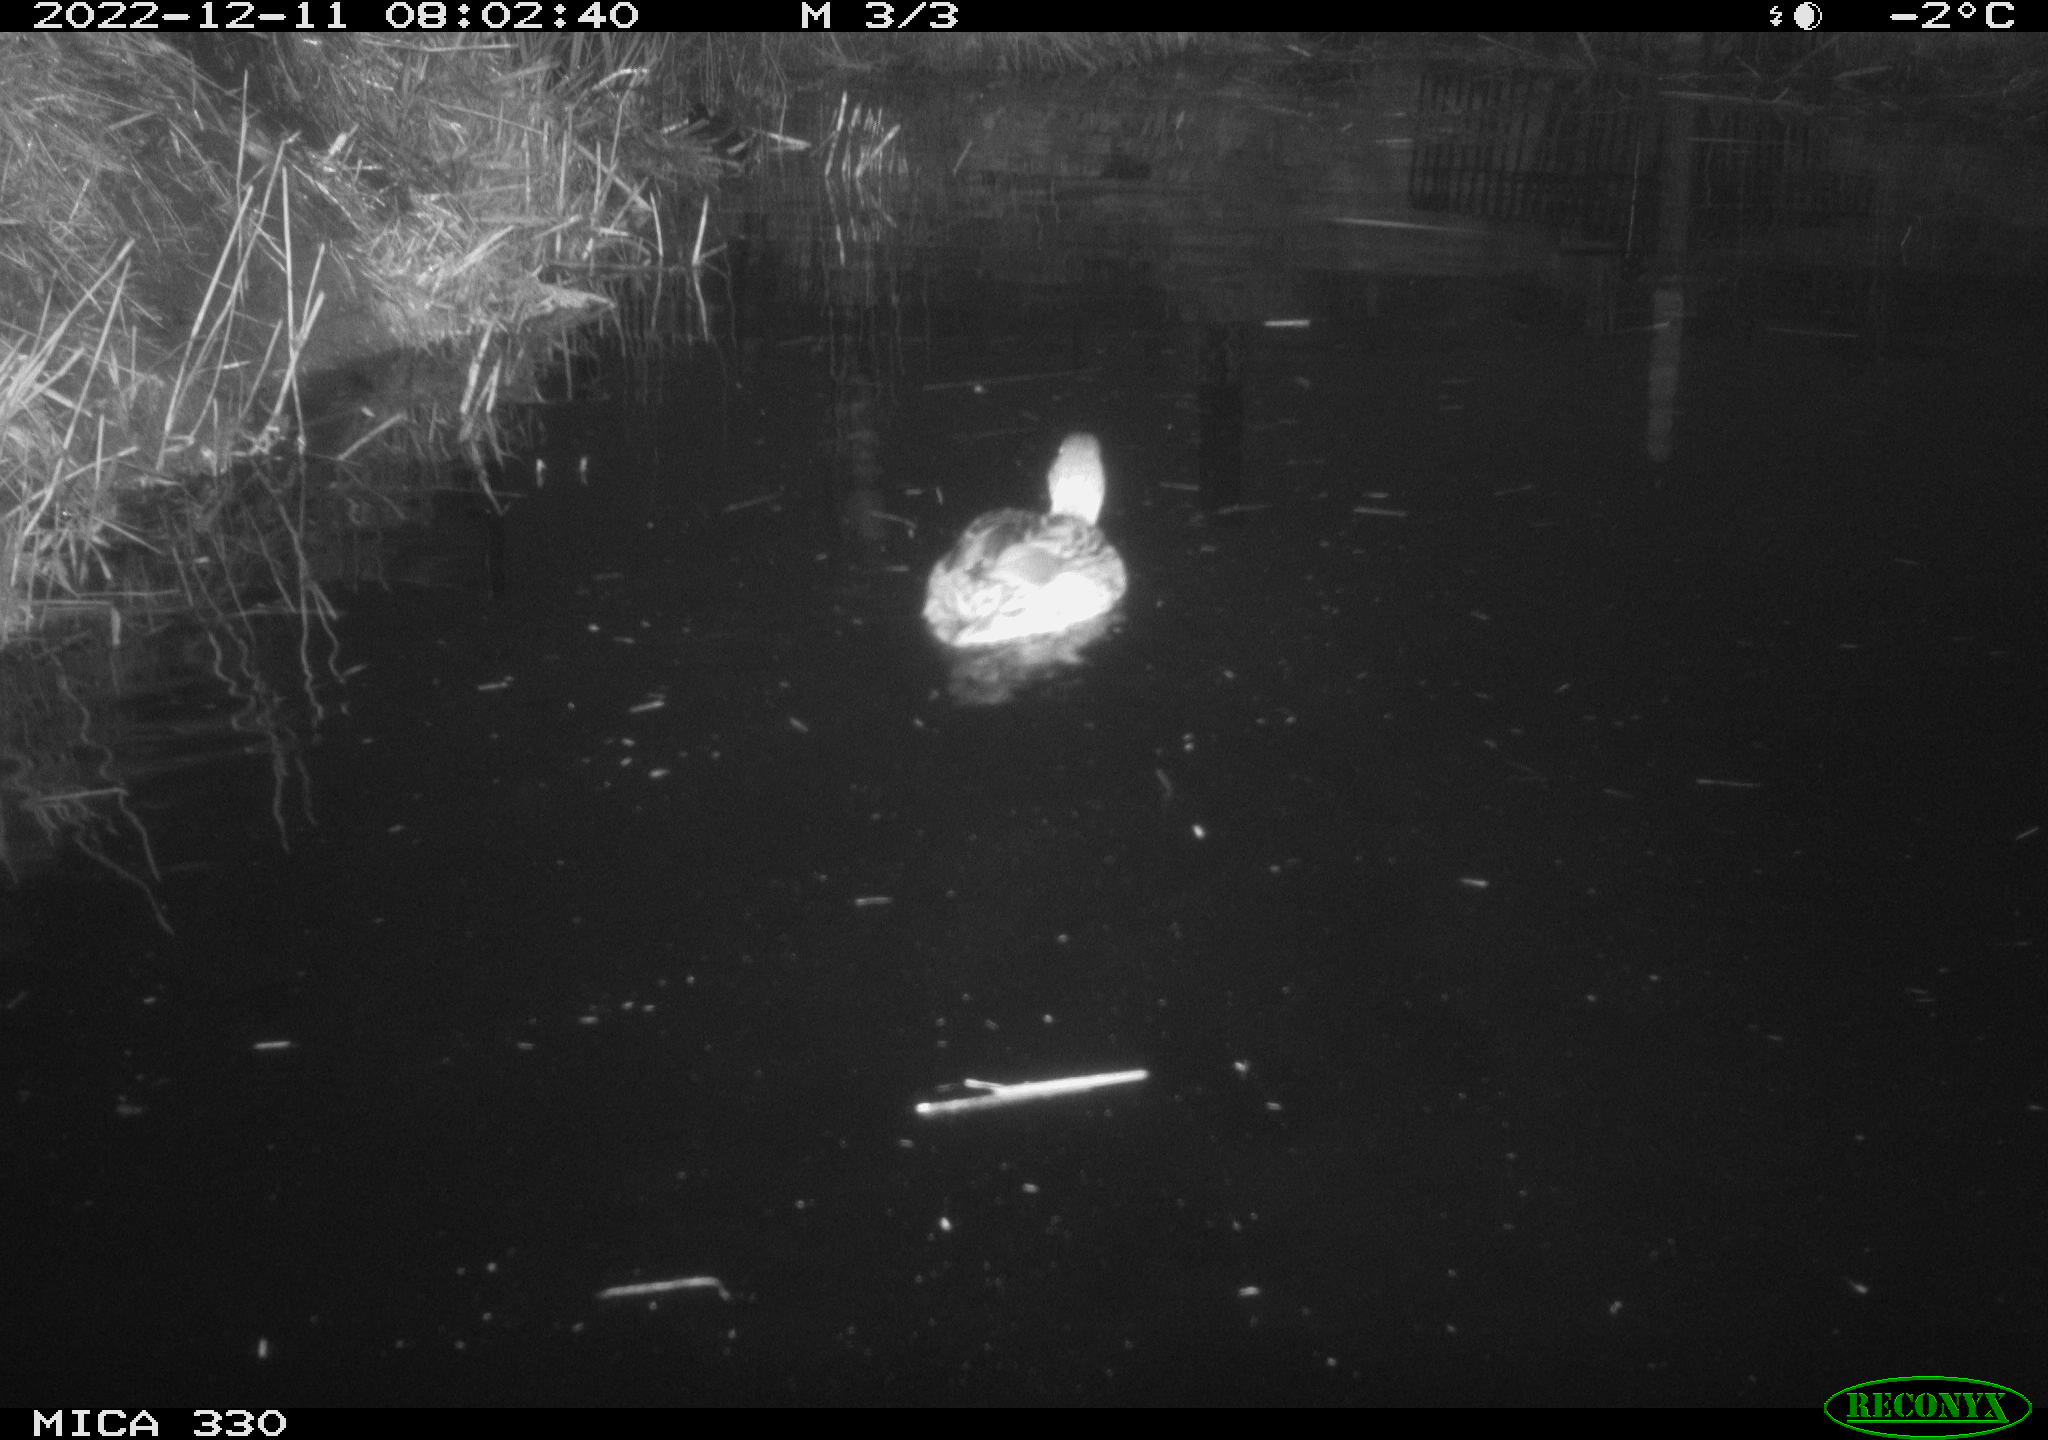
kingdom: Animalia
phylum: Chordata
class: Aves
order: Anseriformes
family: Anatidae
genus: Anas
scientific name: Anas platyrhynchos
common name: Mallard
